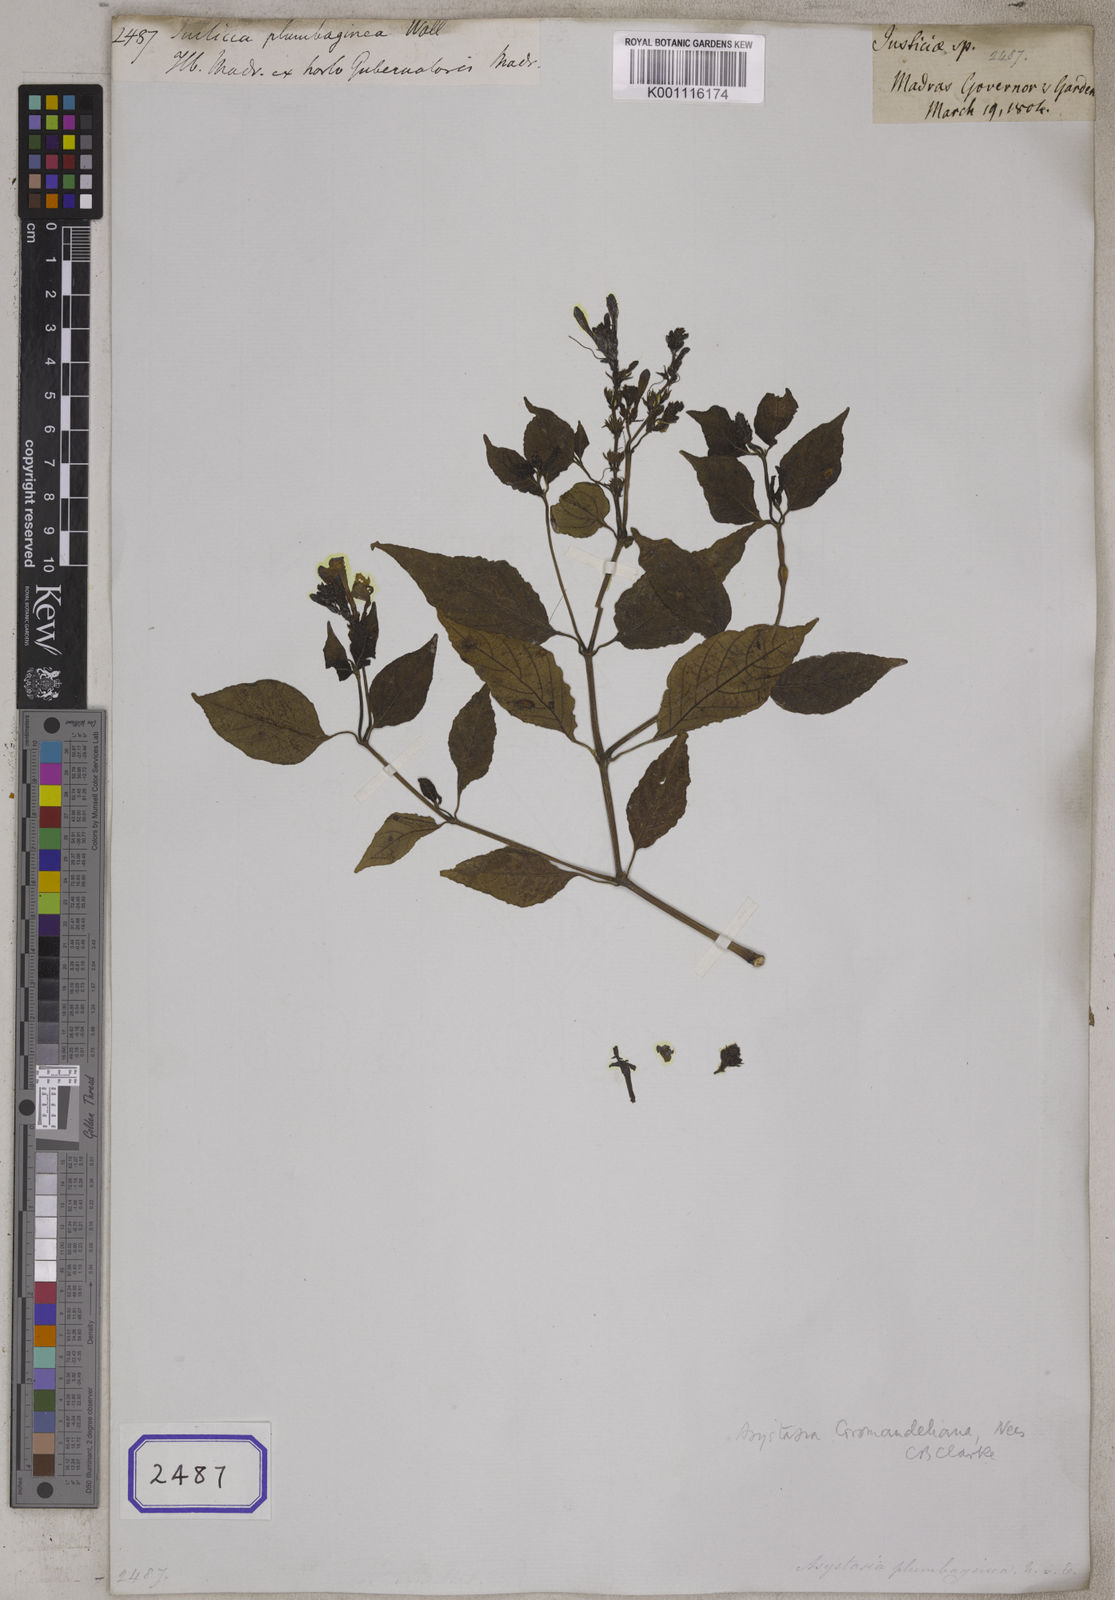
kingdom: Plantae
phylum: Tracheophyta
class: Magnoliopsida
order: Lamiales
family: Acanthaceae
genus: Asystasia
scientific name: Asystasia gangetica
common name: Chinese violet
